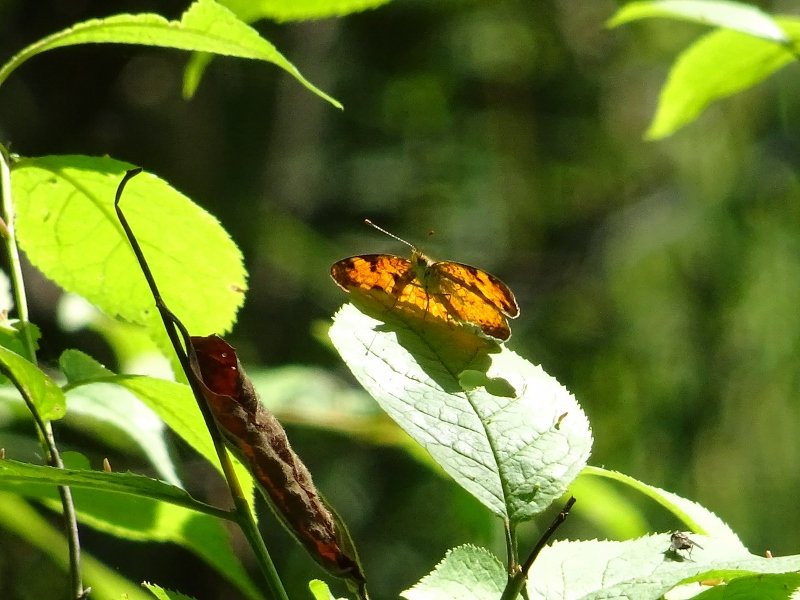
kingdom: Animalia
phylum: Arthropoda
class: Insecta
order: Lepidoptera
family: Nymphalidae
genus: Phyciodes
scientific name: Phyciodes tharos
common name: Northern Crescent
